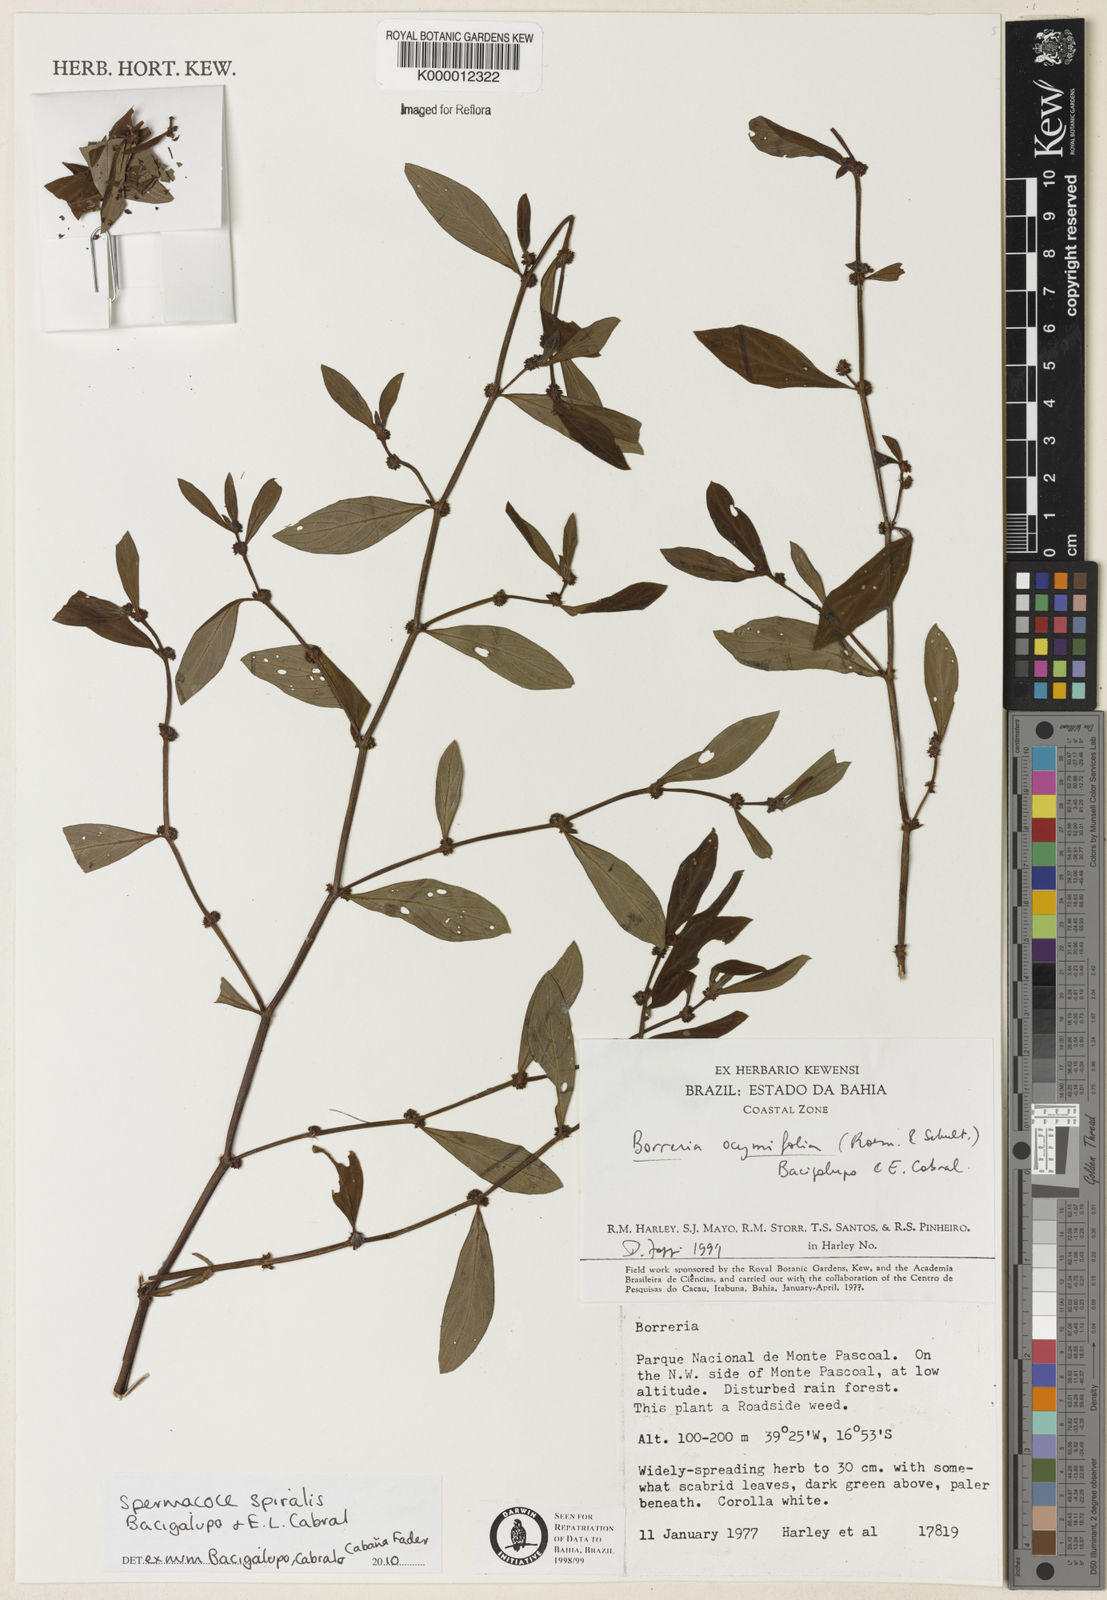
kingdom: Plantae
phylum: Tracheophyta
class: Magnoliopsida
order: Gentianales
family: Rubiaceae
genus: Spermacoce
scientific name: Spermacoce rubescens
